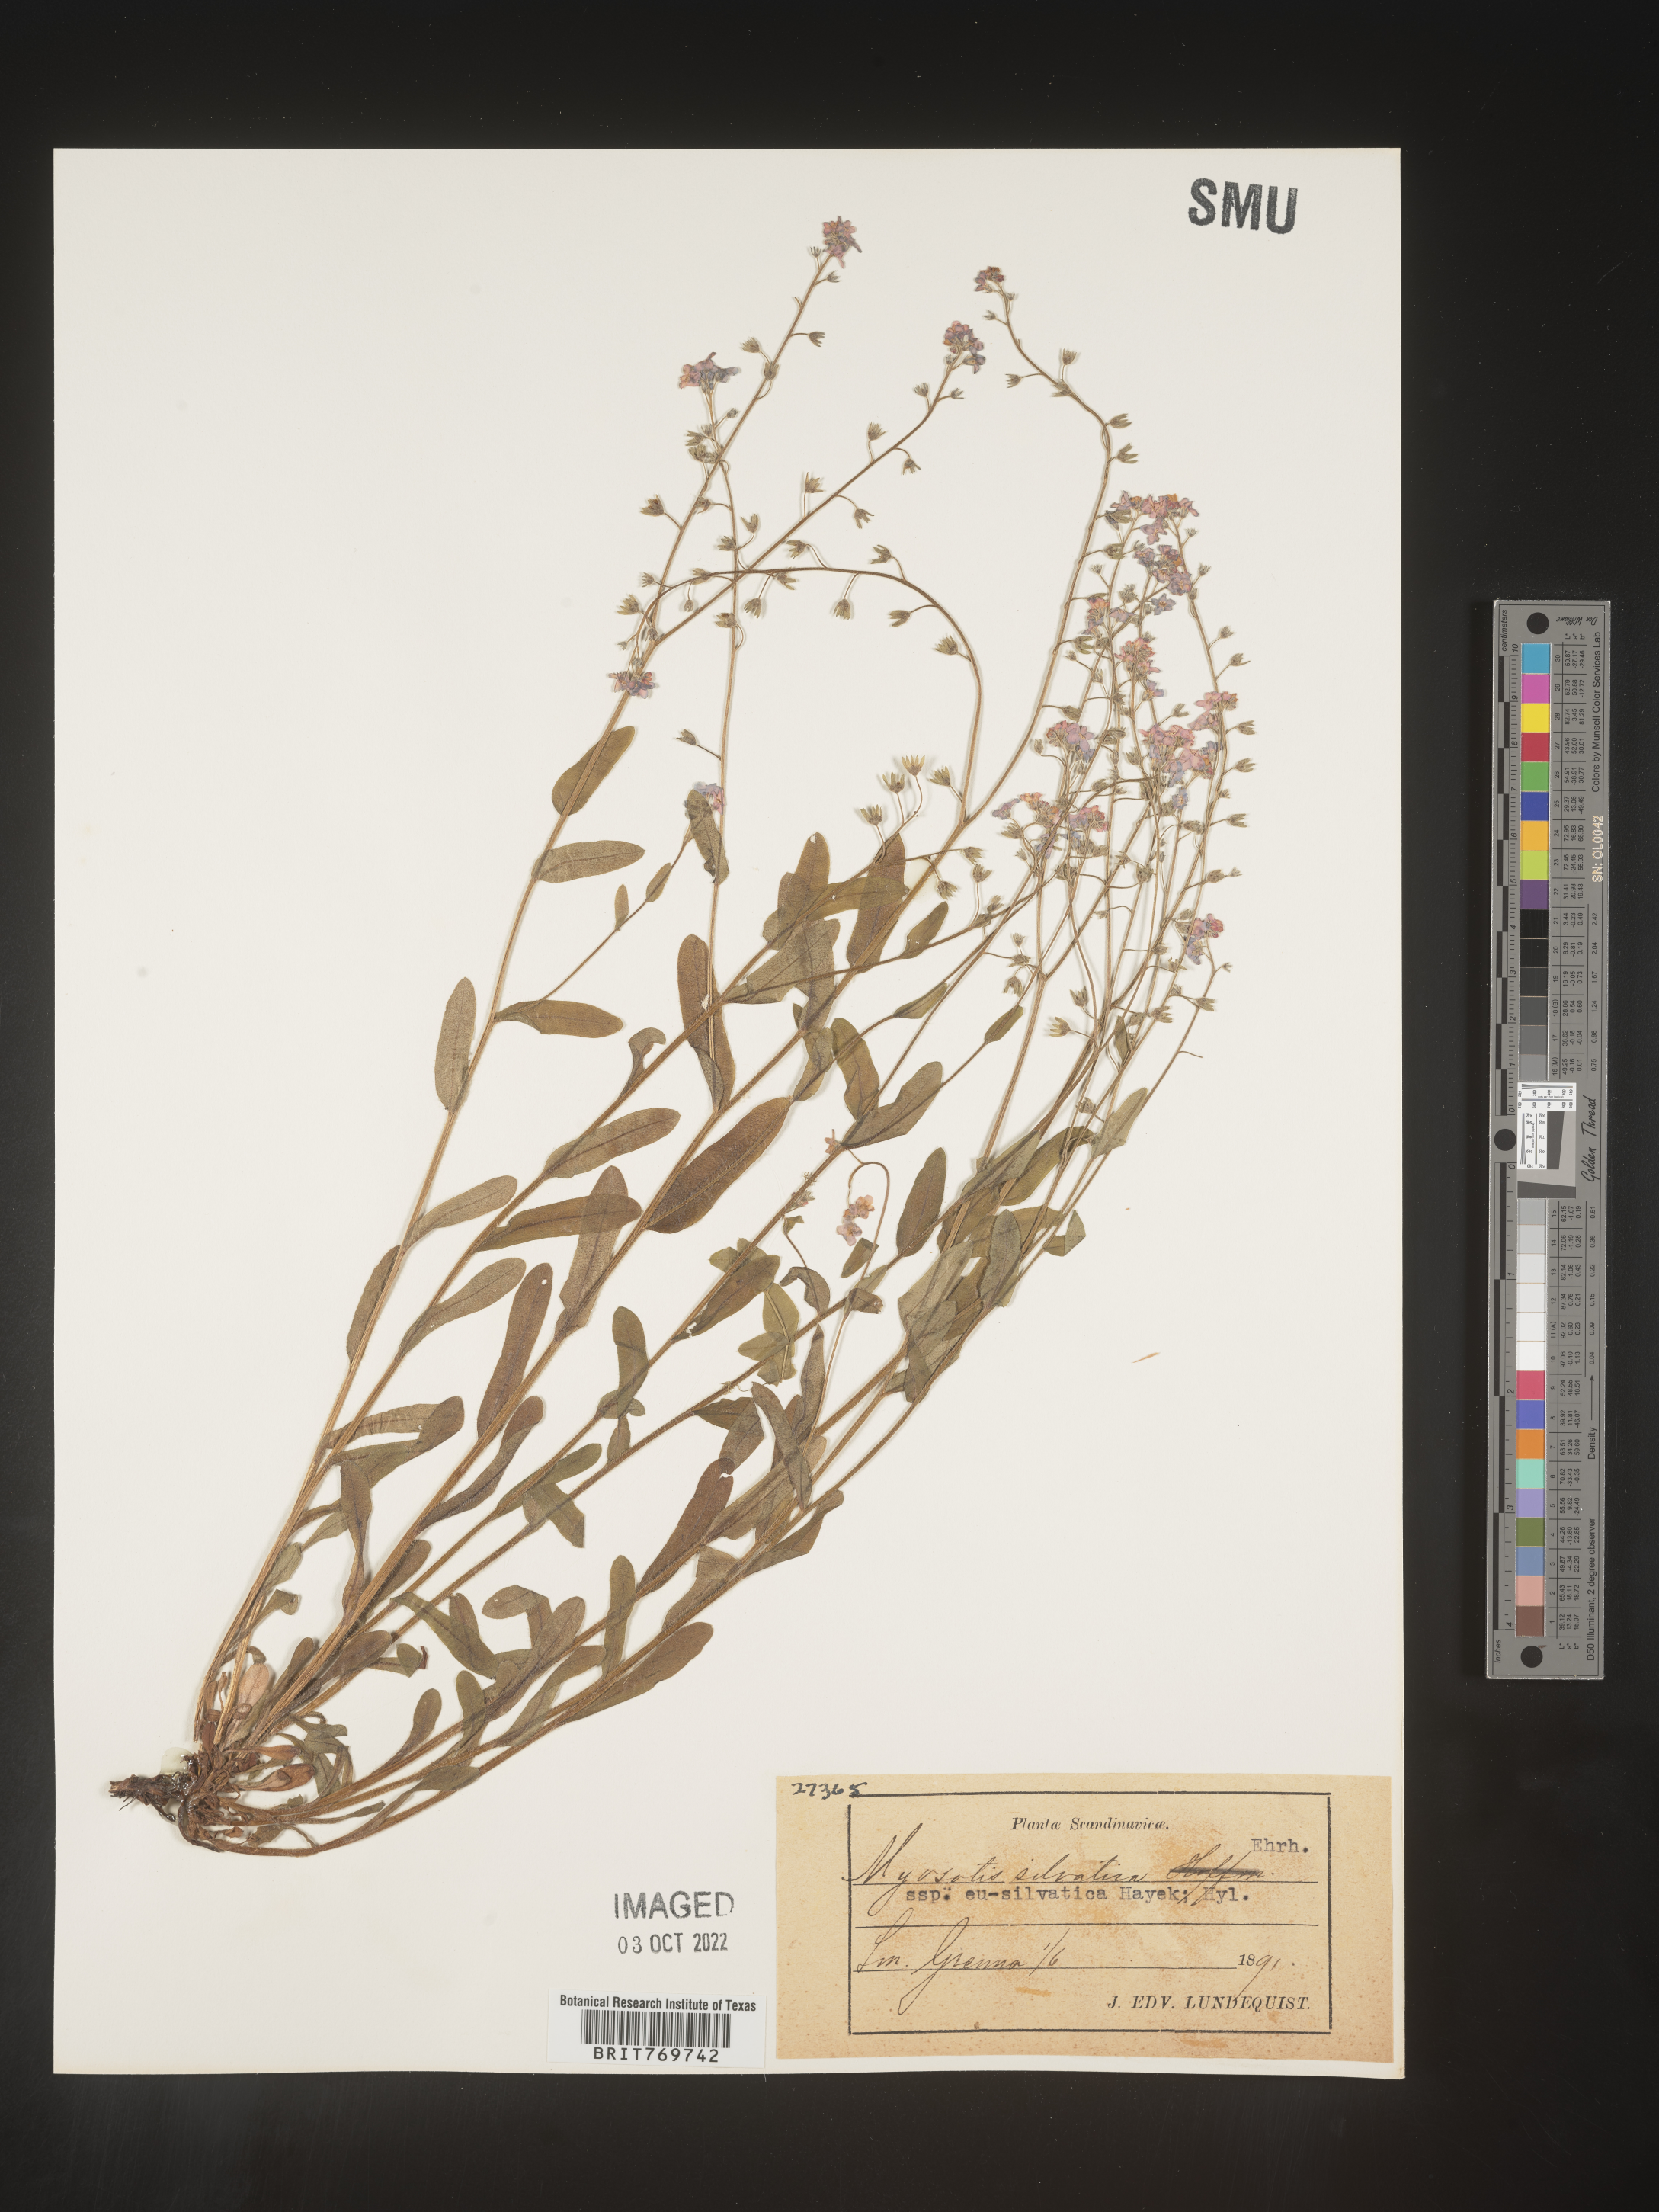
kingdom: Plantae
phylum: Tracheophyta
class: Magnoliopsida
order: Boraginales
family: Boraginaceae
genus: Myosotis
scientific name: Myosotis
